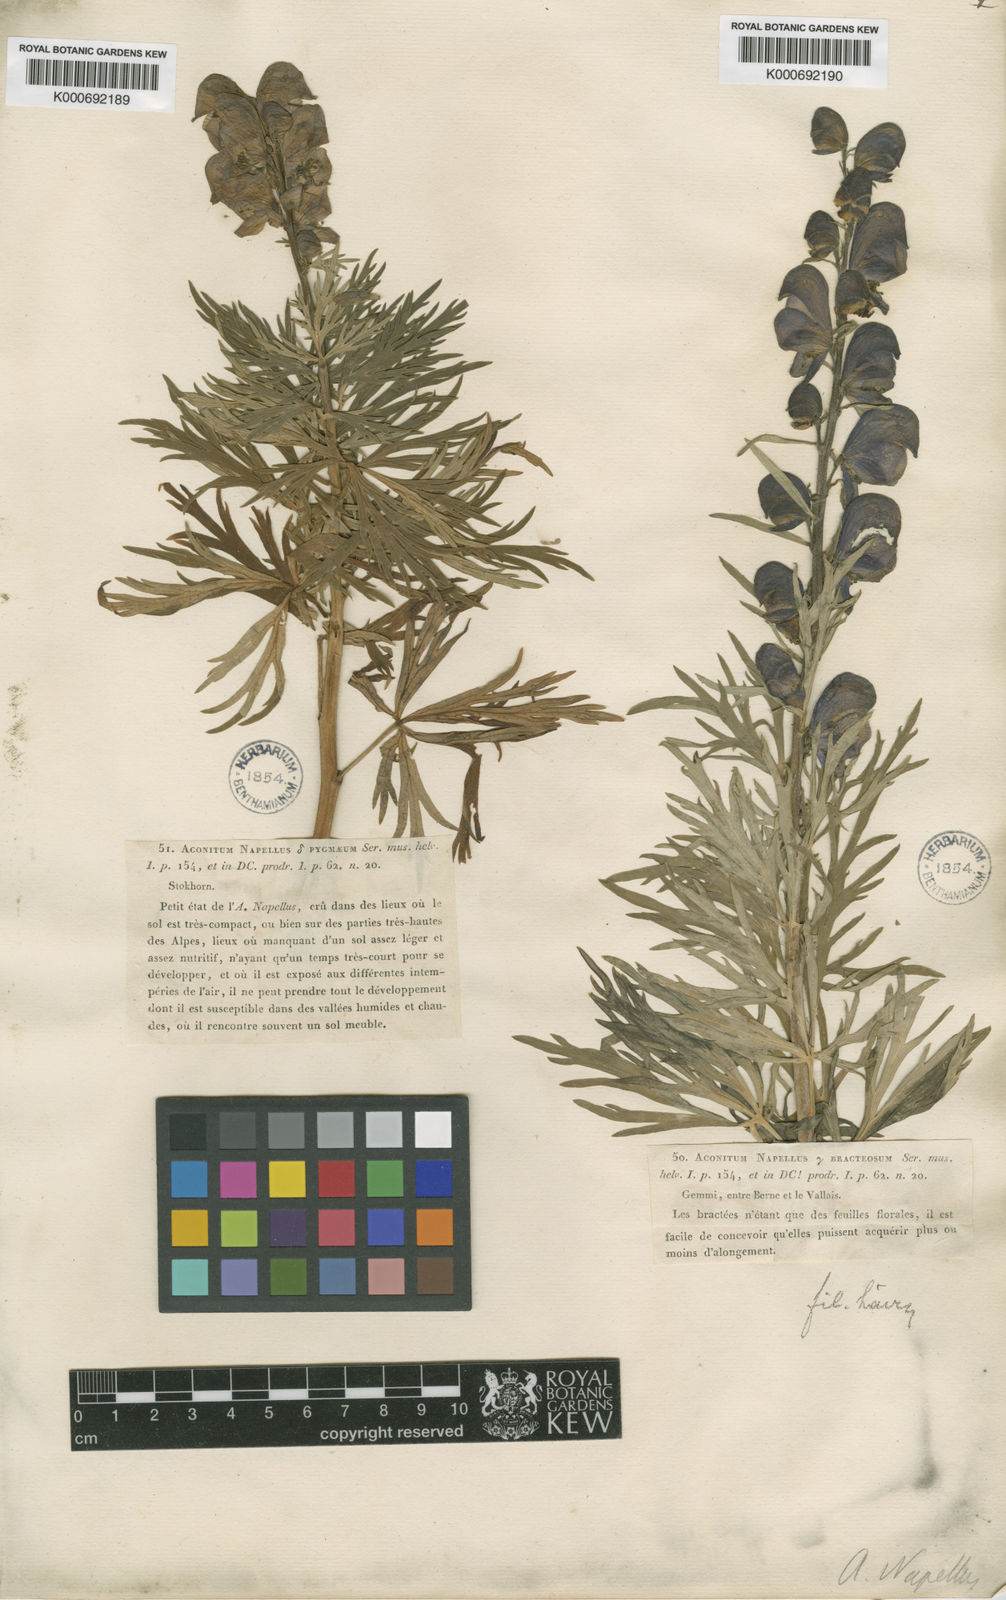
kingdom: Plantae
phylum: Tracheophyta
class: Magnoliopsida
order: Ranunculales
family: Ranunculaceae
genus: Aconitum
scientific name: Aconitum
